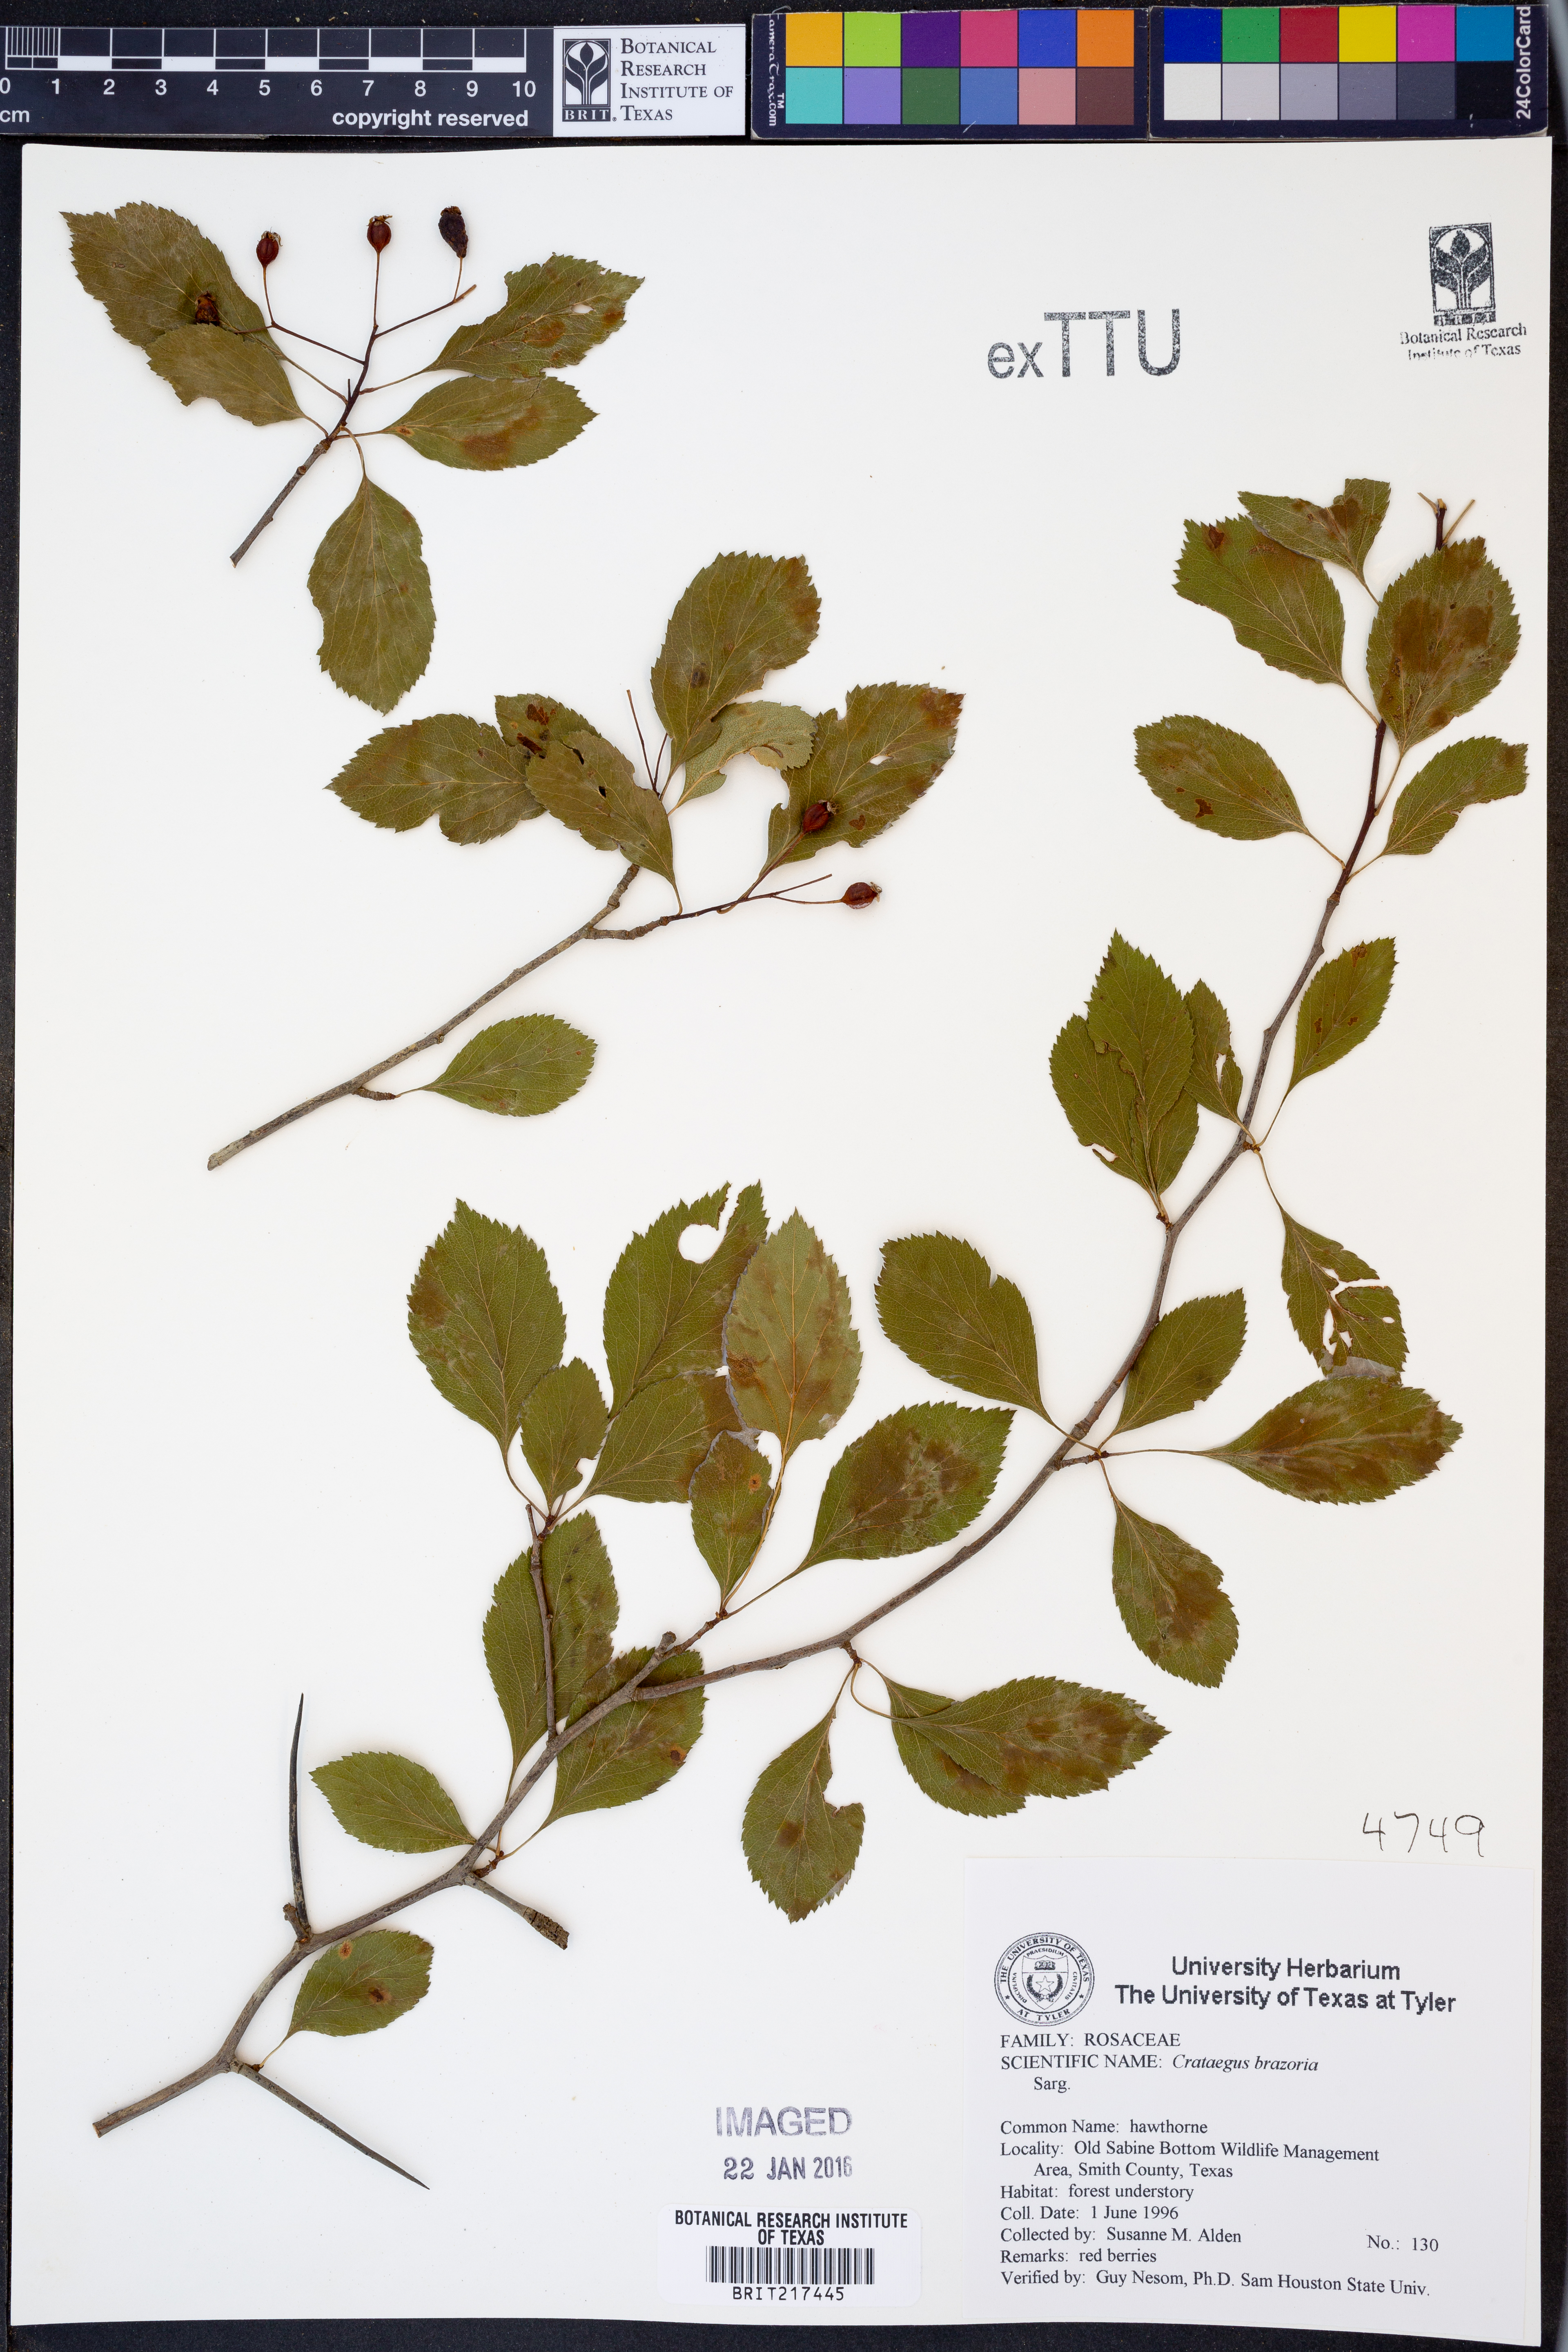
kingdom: Plantae
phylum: Tracheophyta
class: Magnoliopsida
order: Rosales
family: Rosaceae
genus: Crataegus
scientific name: Crataegus brazoria
